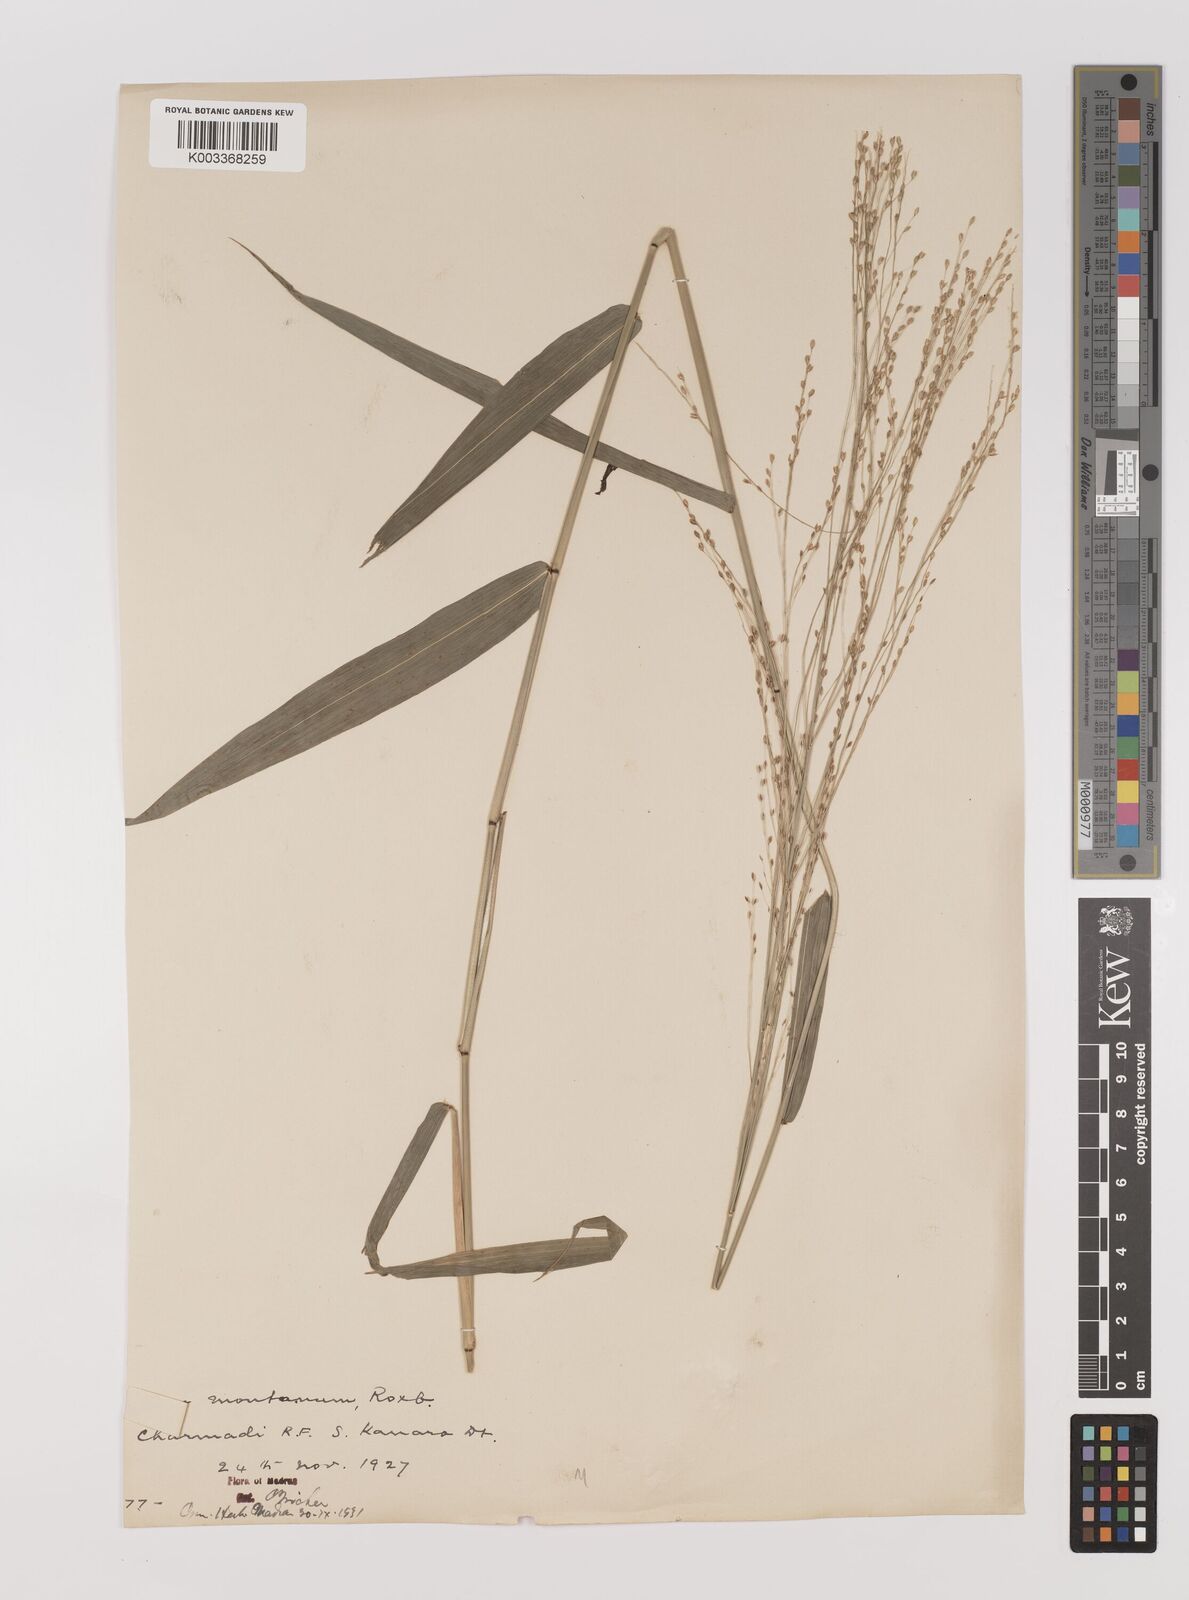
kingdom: Plantae
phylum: Tracheophyta
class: Liliopsida
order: Poales
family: Poaceae
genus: Panicum
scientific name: Panicum notatum
